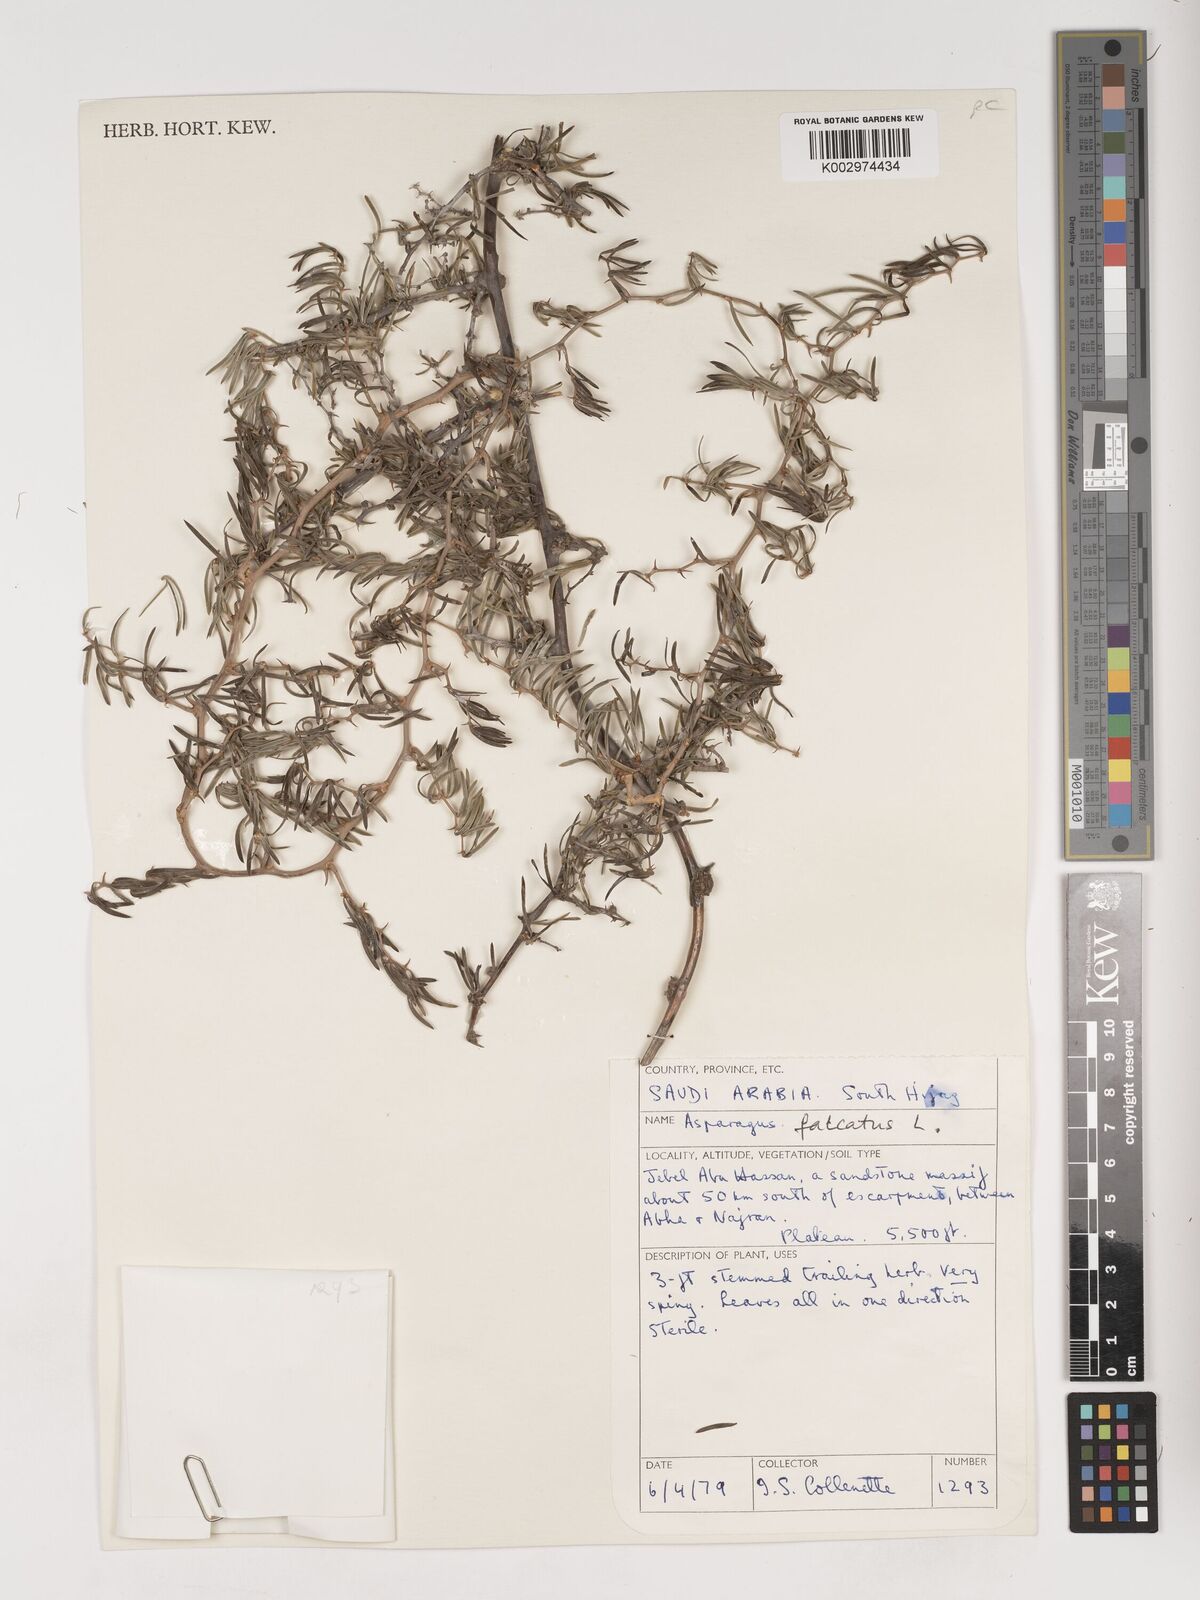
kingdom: Plantae
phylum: Tracheophyta
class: Liliopsida
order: Asparagales
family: Asparagaceae
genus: Asparagus
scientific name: Asparagus falcatus
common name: Asparagus
